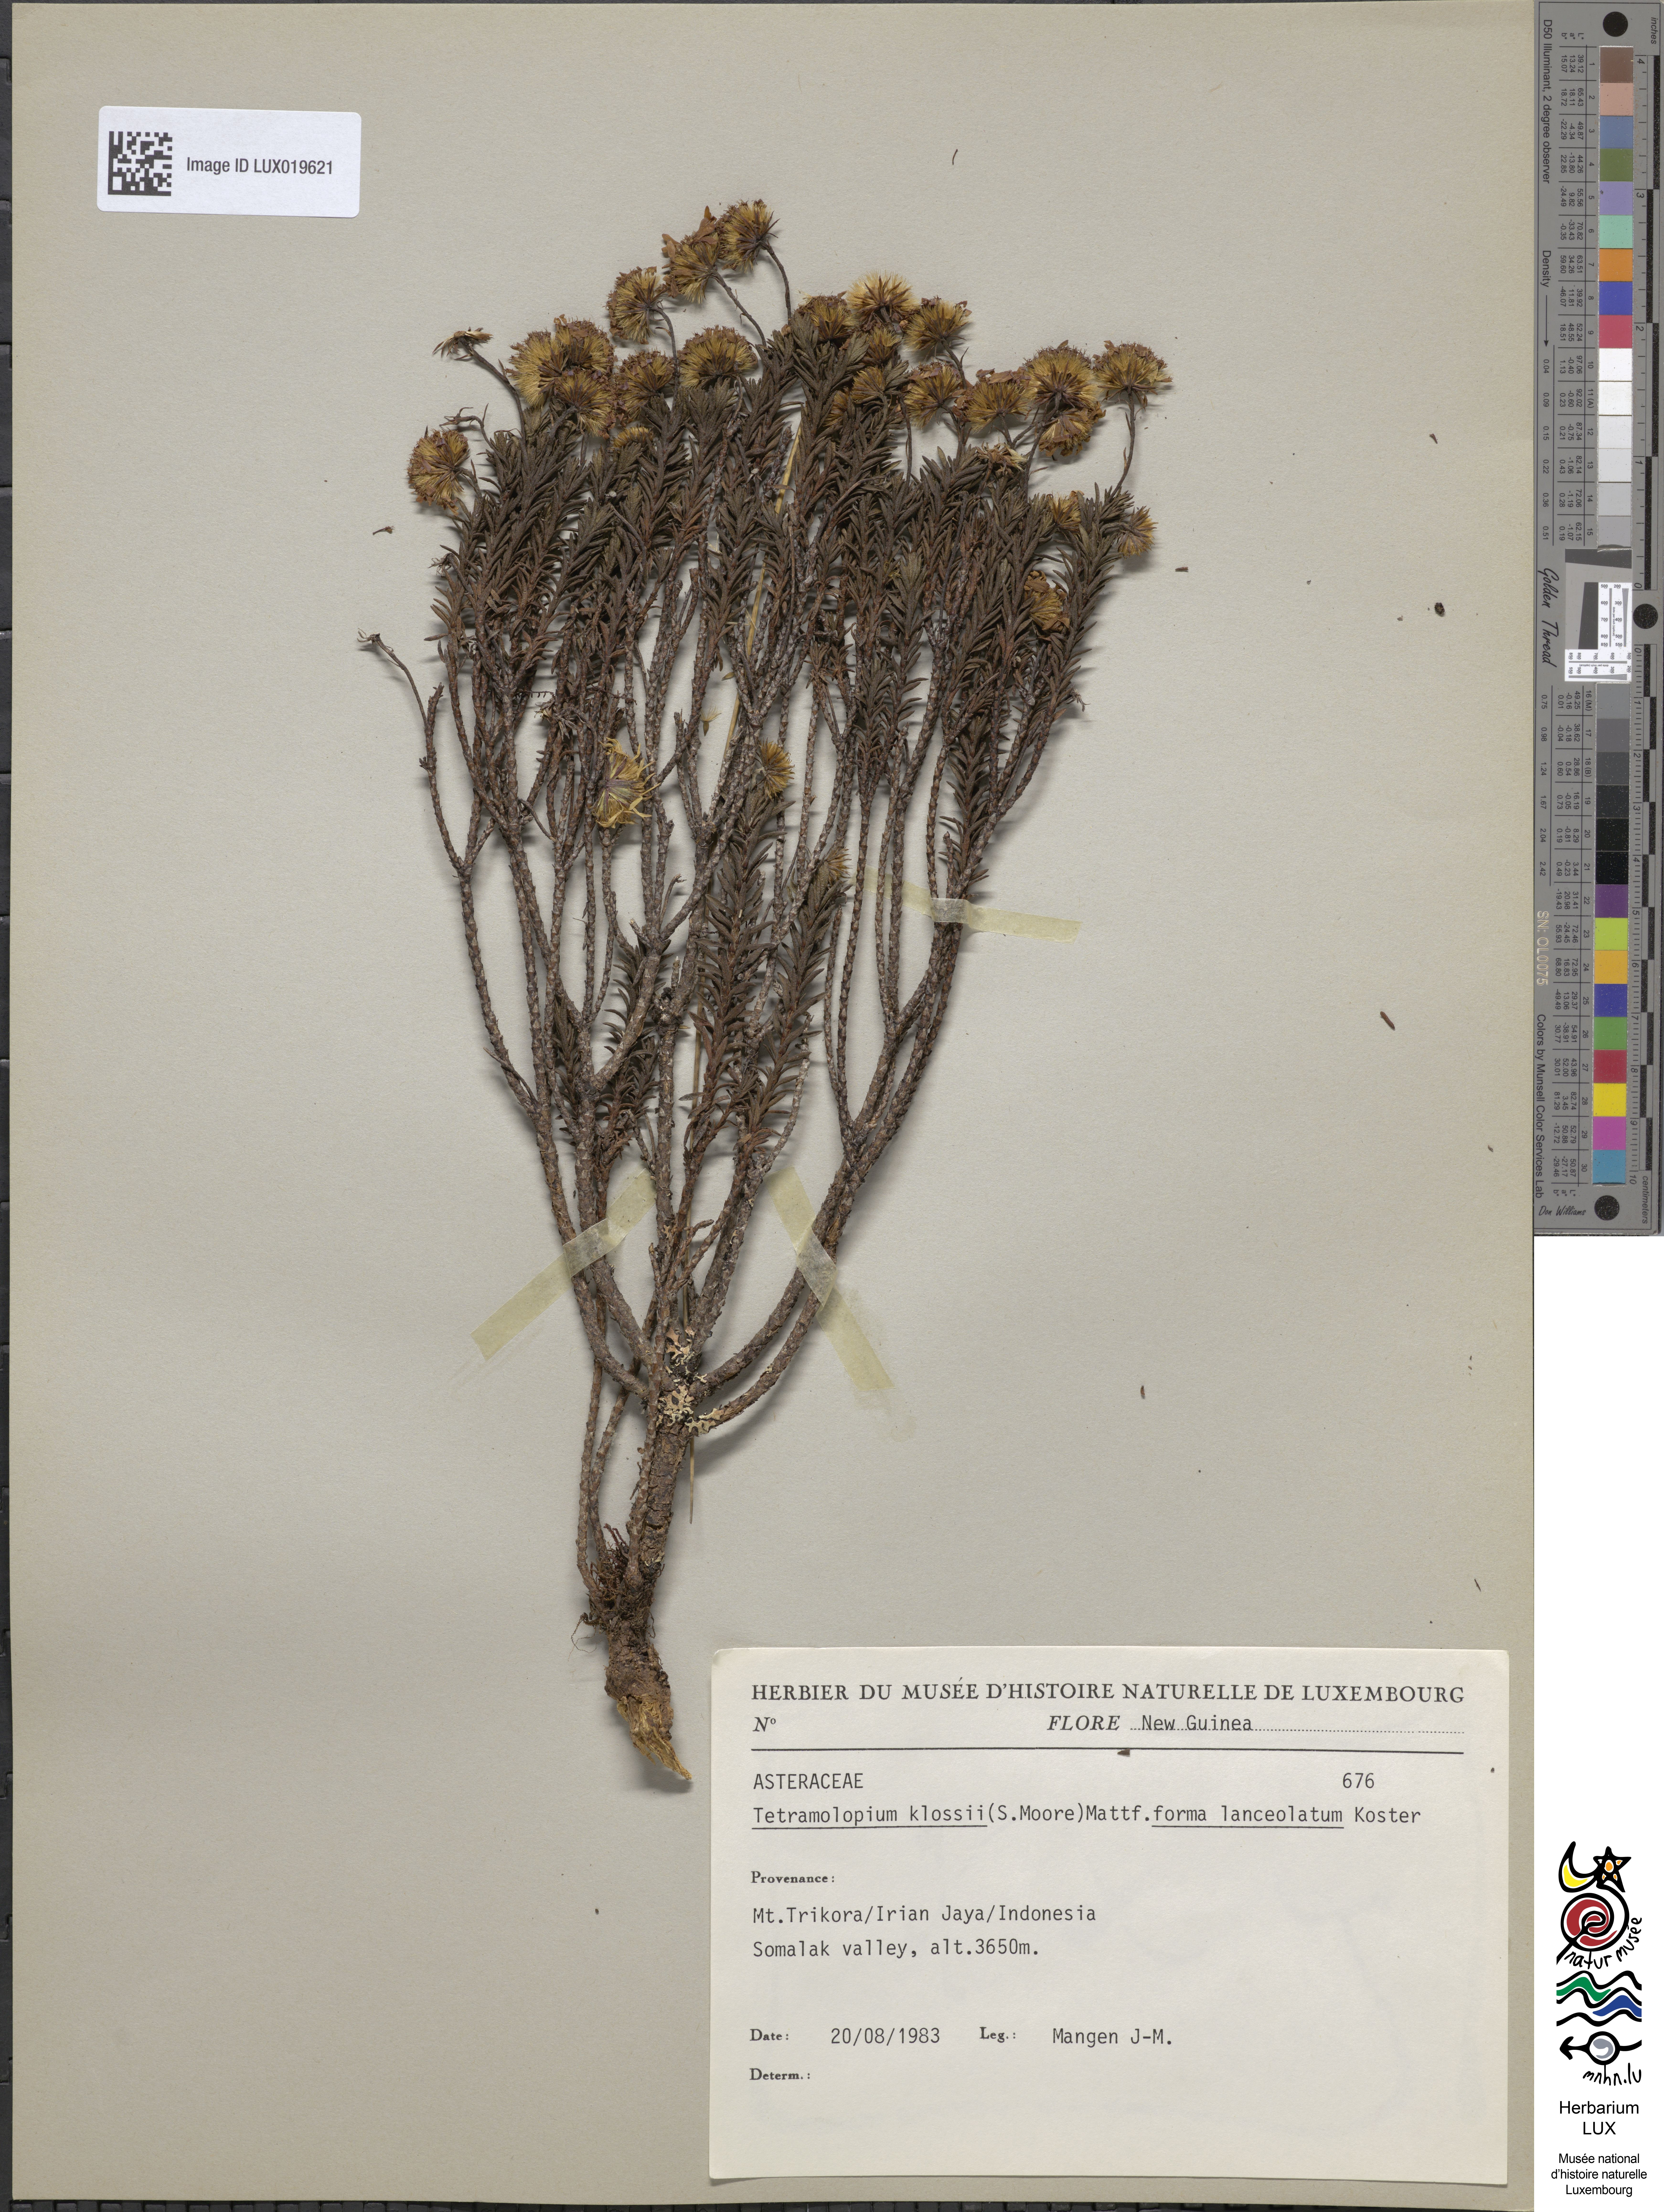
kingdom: Plantae
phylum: Tracheophyta
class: Magnoliopsida
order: Asterales
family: Asteraceae
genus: Tetramolopium
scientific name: Tetramolopium klossii
